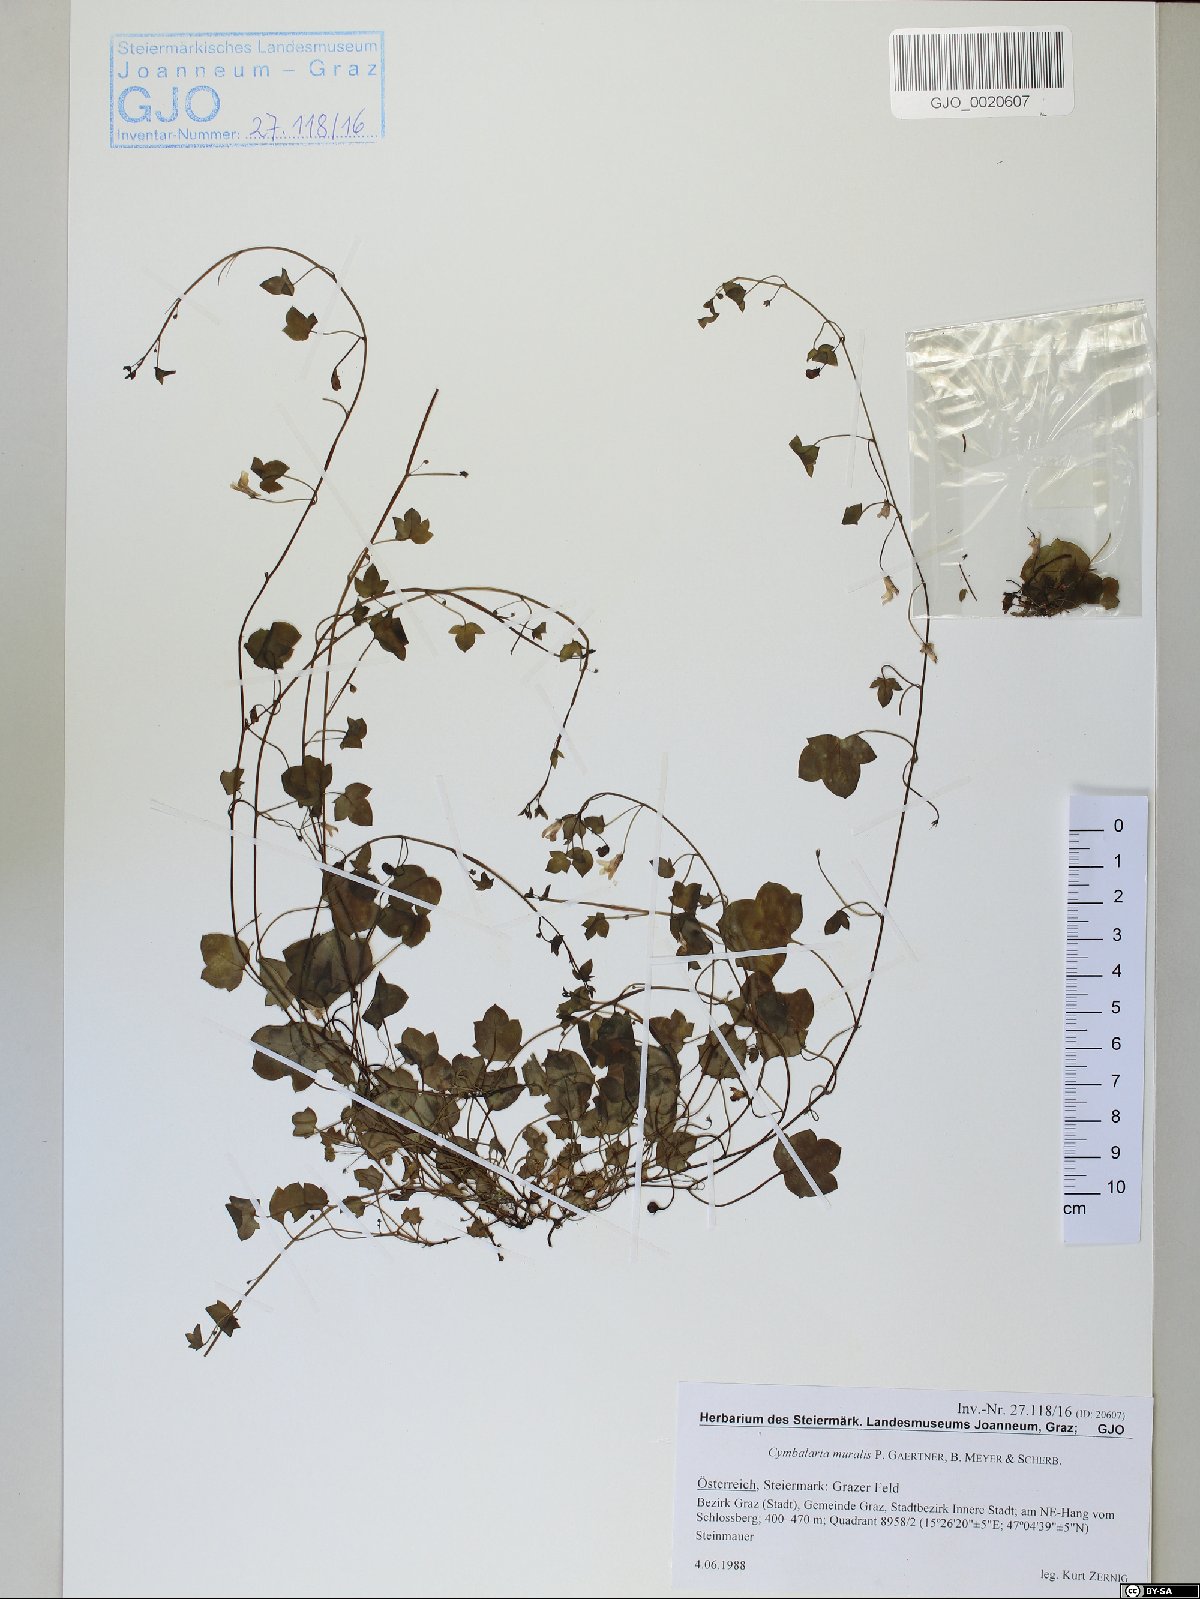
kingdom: Plantae
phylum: Tracheophyta
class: Magnoliopsida
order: Lamiales
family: Plantaginaceae
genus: Cymbalaria
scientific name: Cymbalaria muralis
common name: Ivy-leaved toadflax
